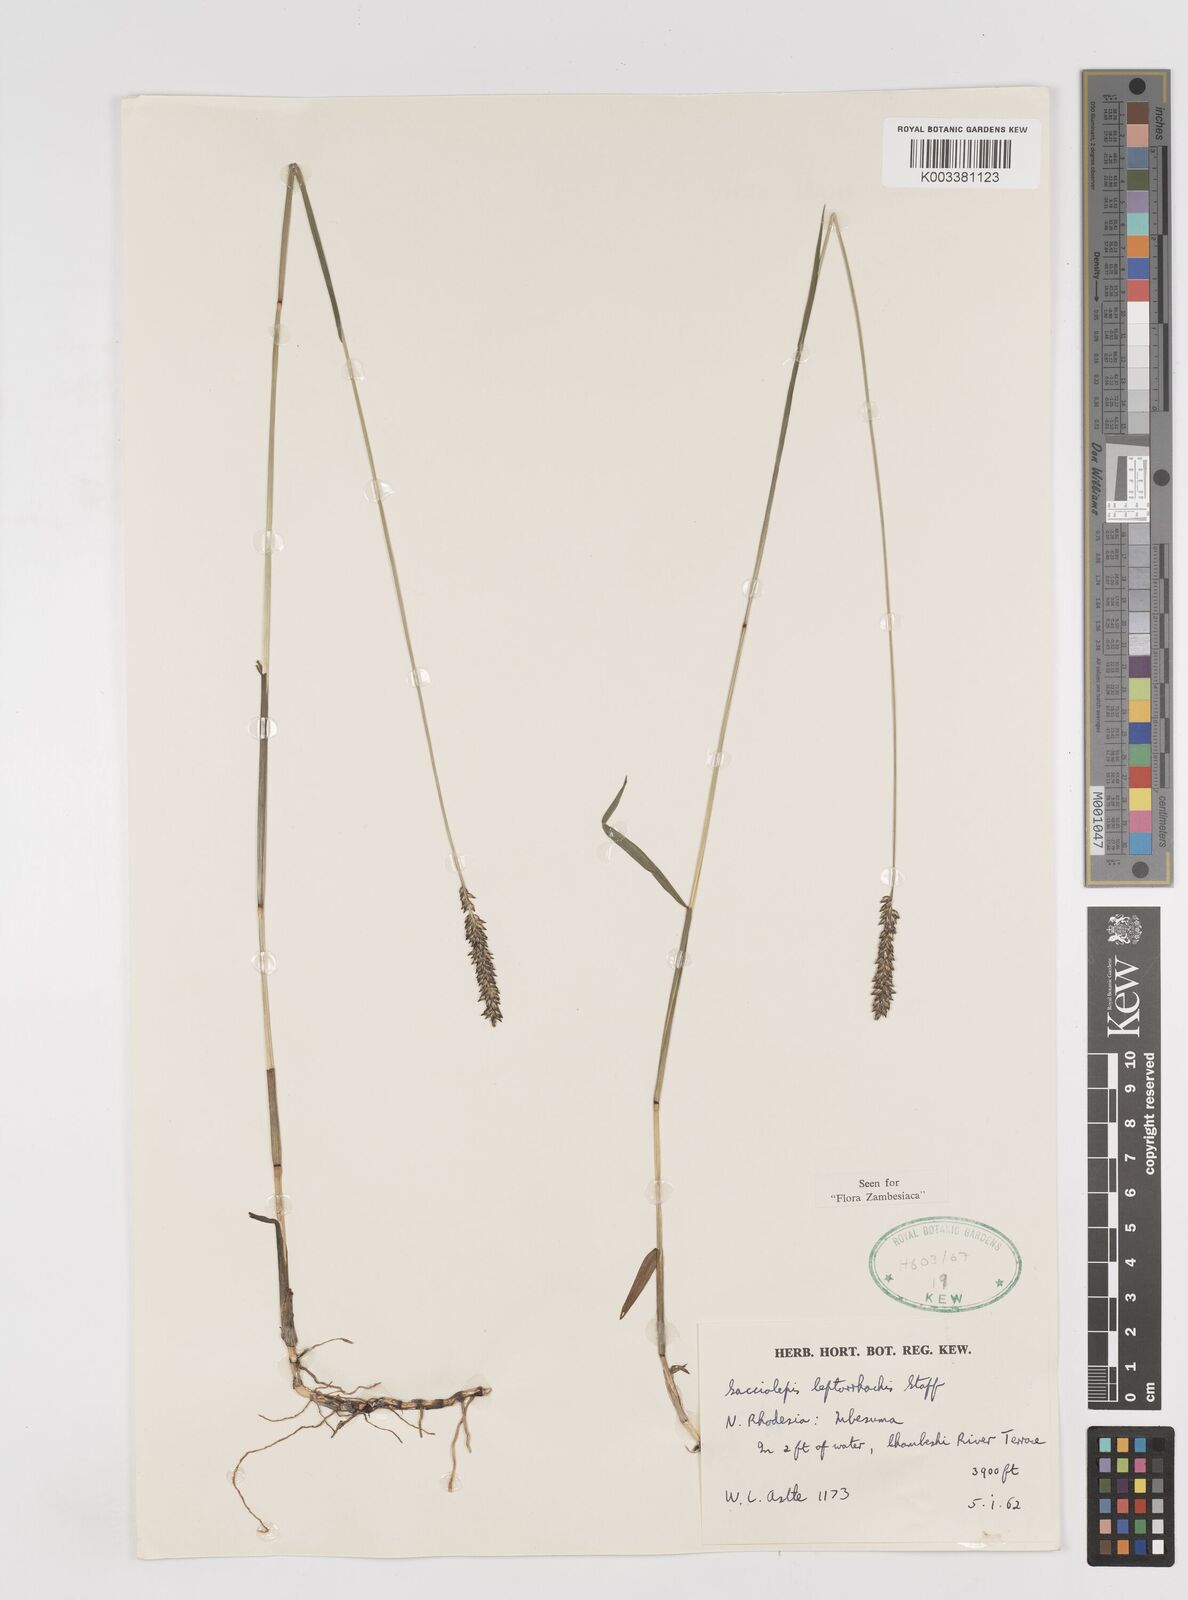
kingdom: Plantae
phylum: Tracheophyta
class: Liliopsida
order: Poales
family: Poaceae
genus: Sacciolepis
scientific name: Sacciolepis leptorrhachis
